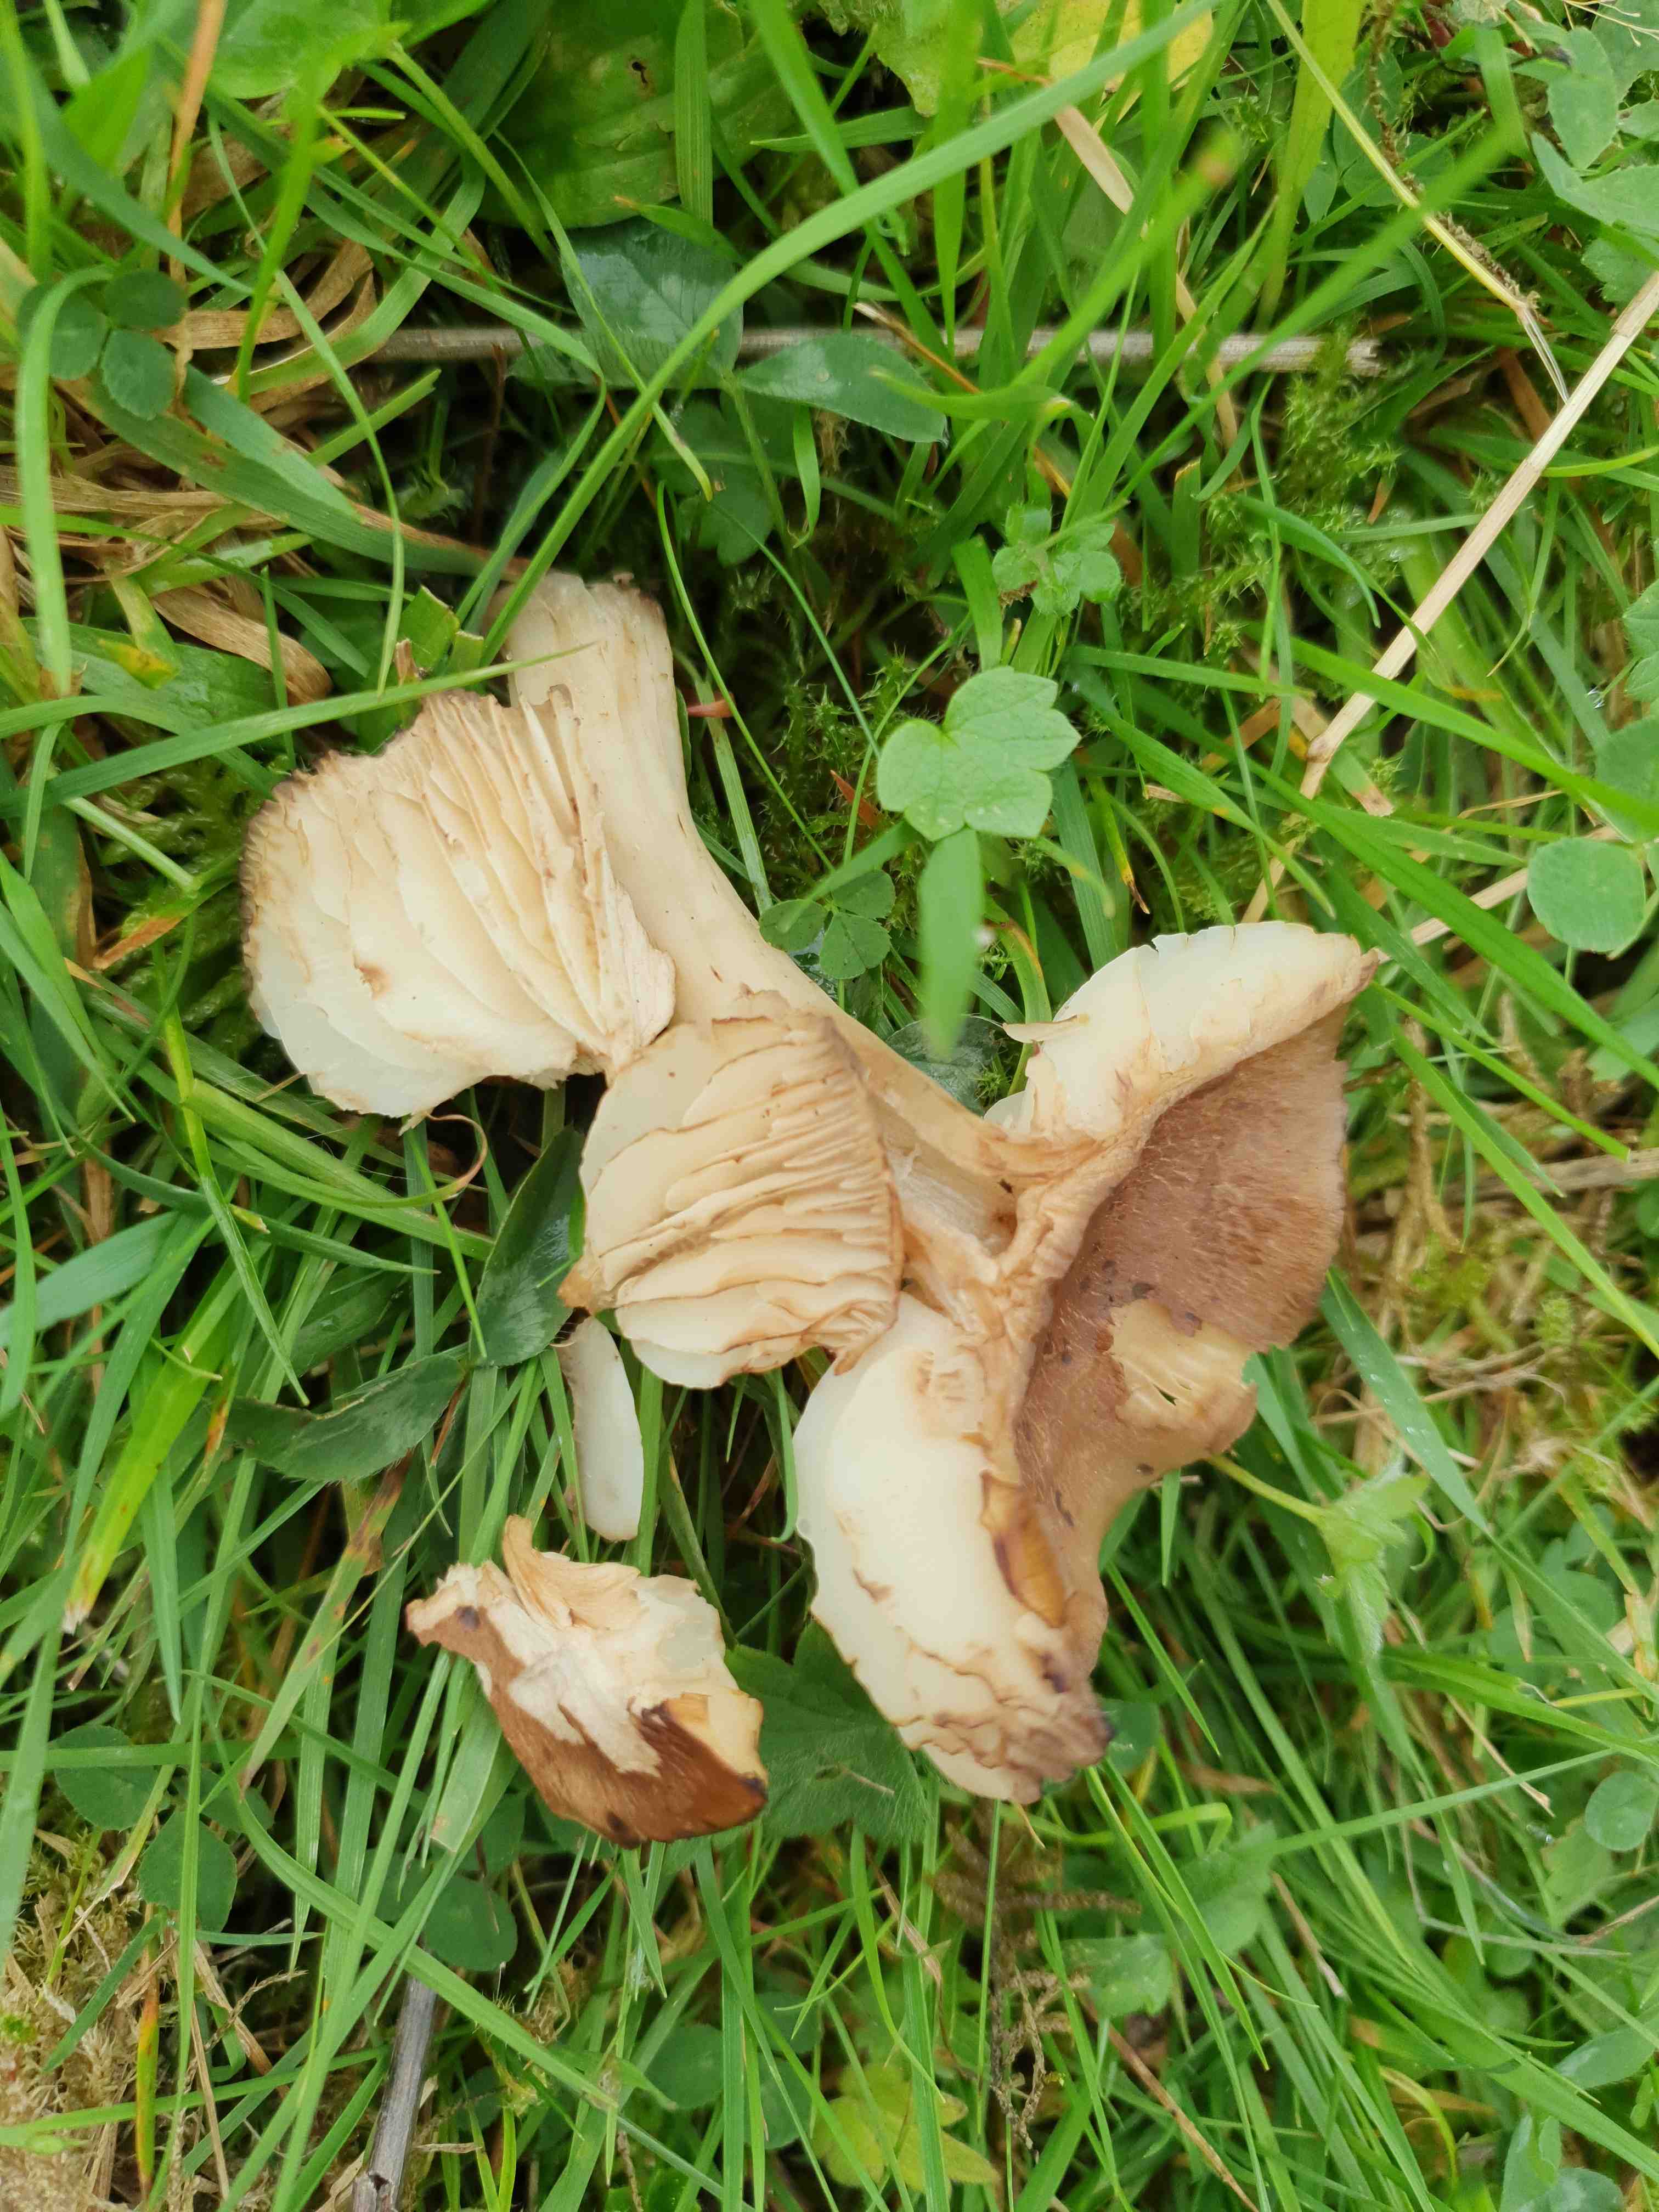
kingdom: Fungi
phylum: Basidiomycota
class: Agaricomycetes
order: Agaricales
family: Hygrophoraceae
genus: Hygrocybe
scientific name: Hygrocybe ingrata
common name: Jensens vokshat
